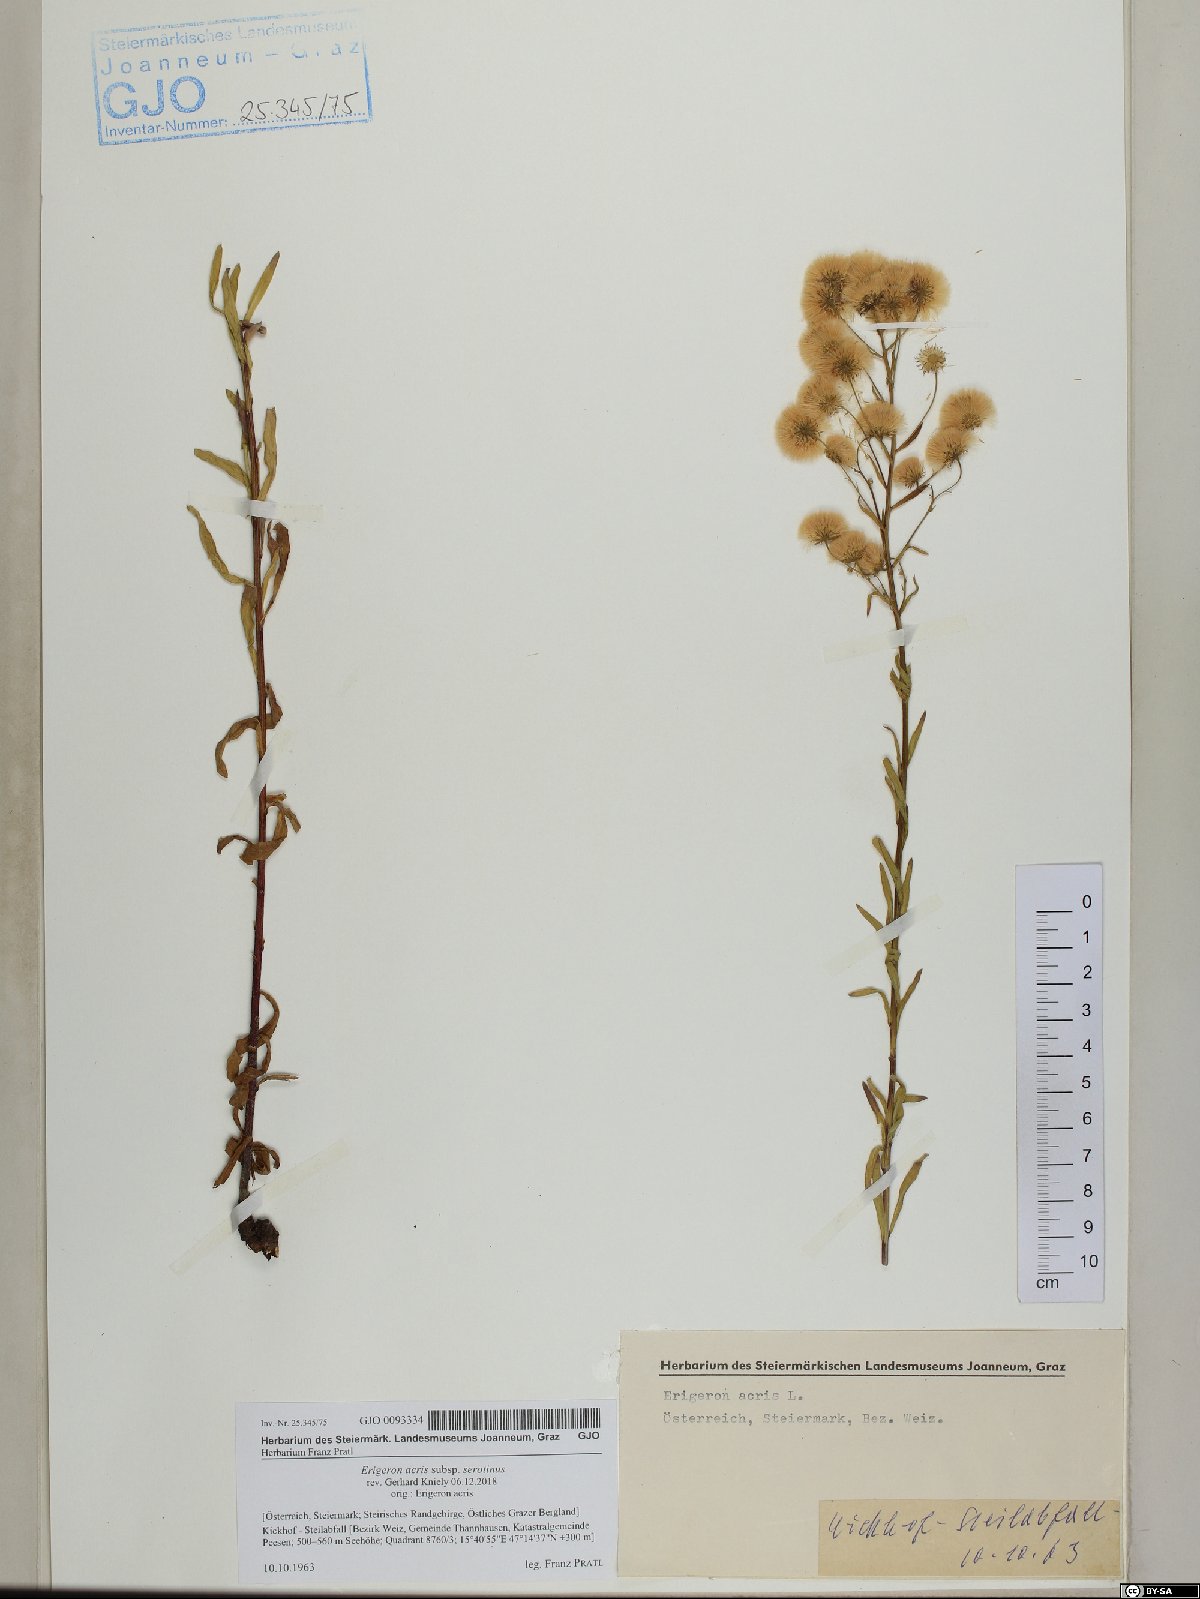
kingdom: Plantae
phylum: Tracheophyta
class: Magnoliopsida
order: Asterales
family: Asteraceae
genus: Erigeron
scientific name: Erigeron muralis
